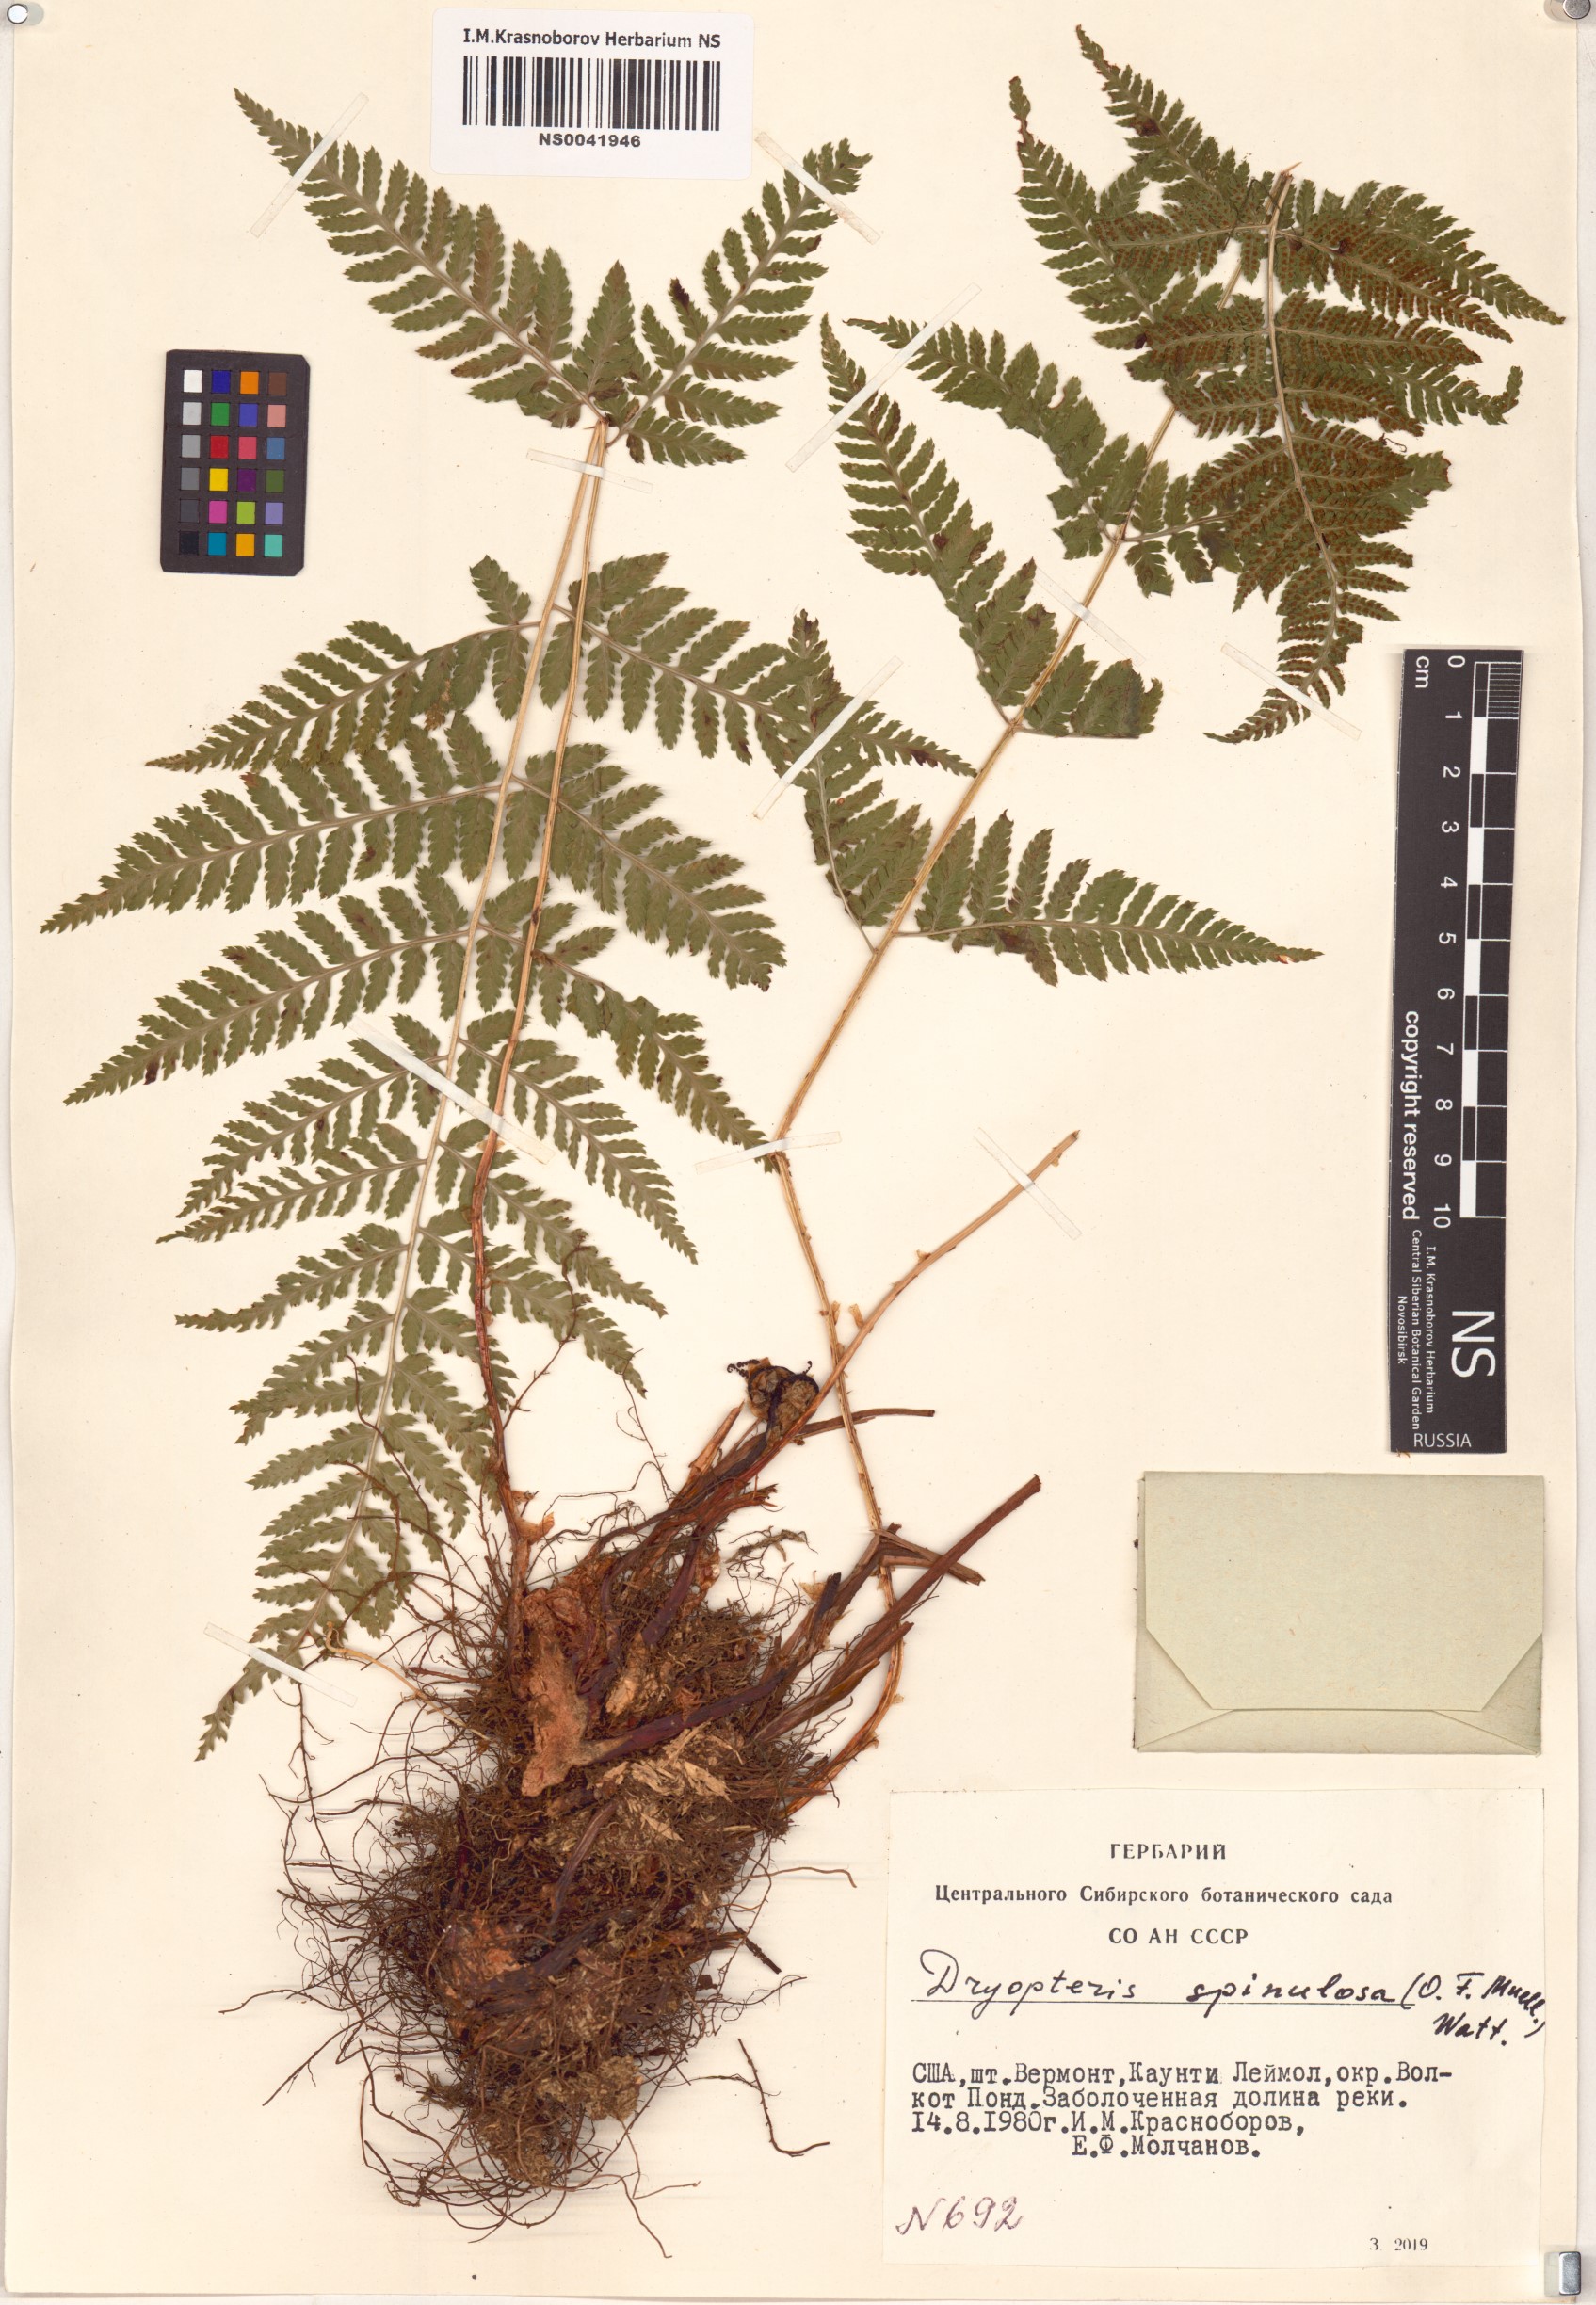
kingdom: Plantae
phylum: Tracheophyta
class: Polypodiopsida
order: Polypodiales
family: Dryopteridaceae
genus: Dryopteris
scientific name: Dryopteris carthusiana
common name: Narrow buckler-fern
